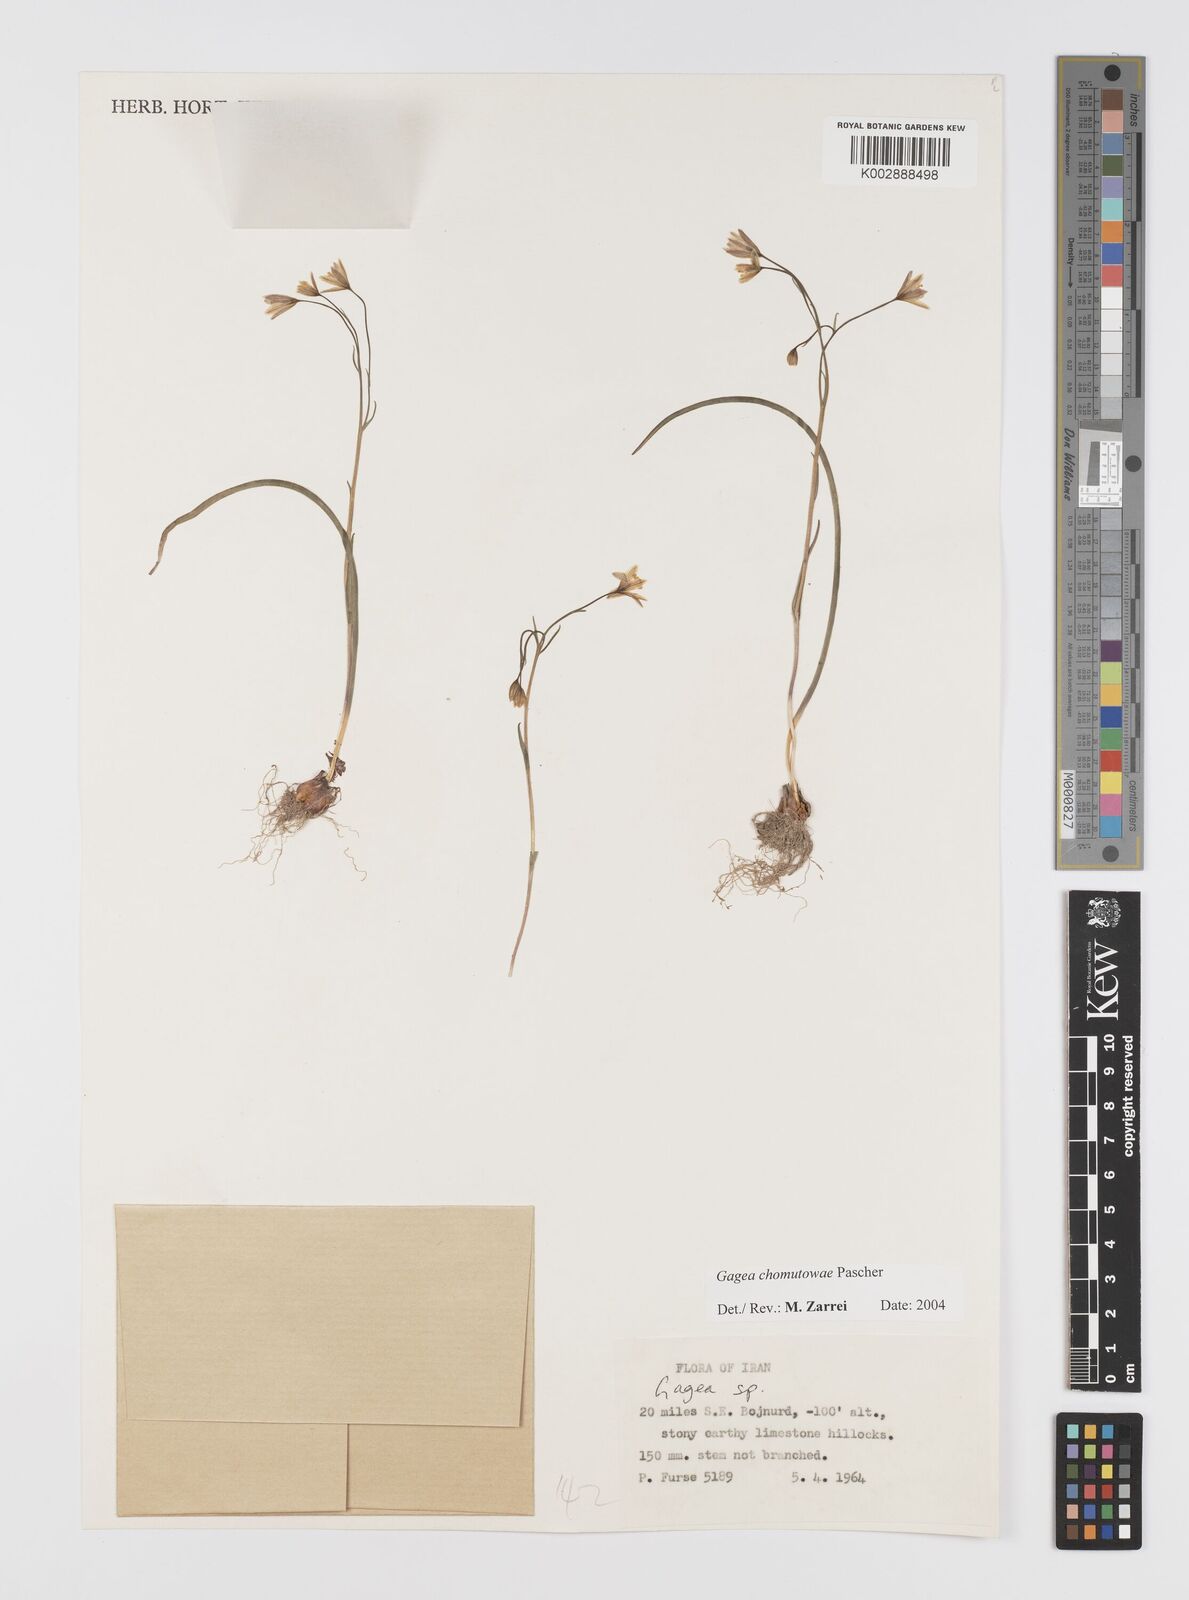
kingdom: Plantae
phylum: Tracheophyta
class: Liliopsida
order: Liliales
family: Liliaceae
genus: Gagea
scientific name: Gagea chomutovae
